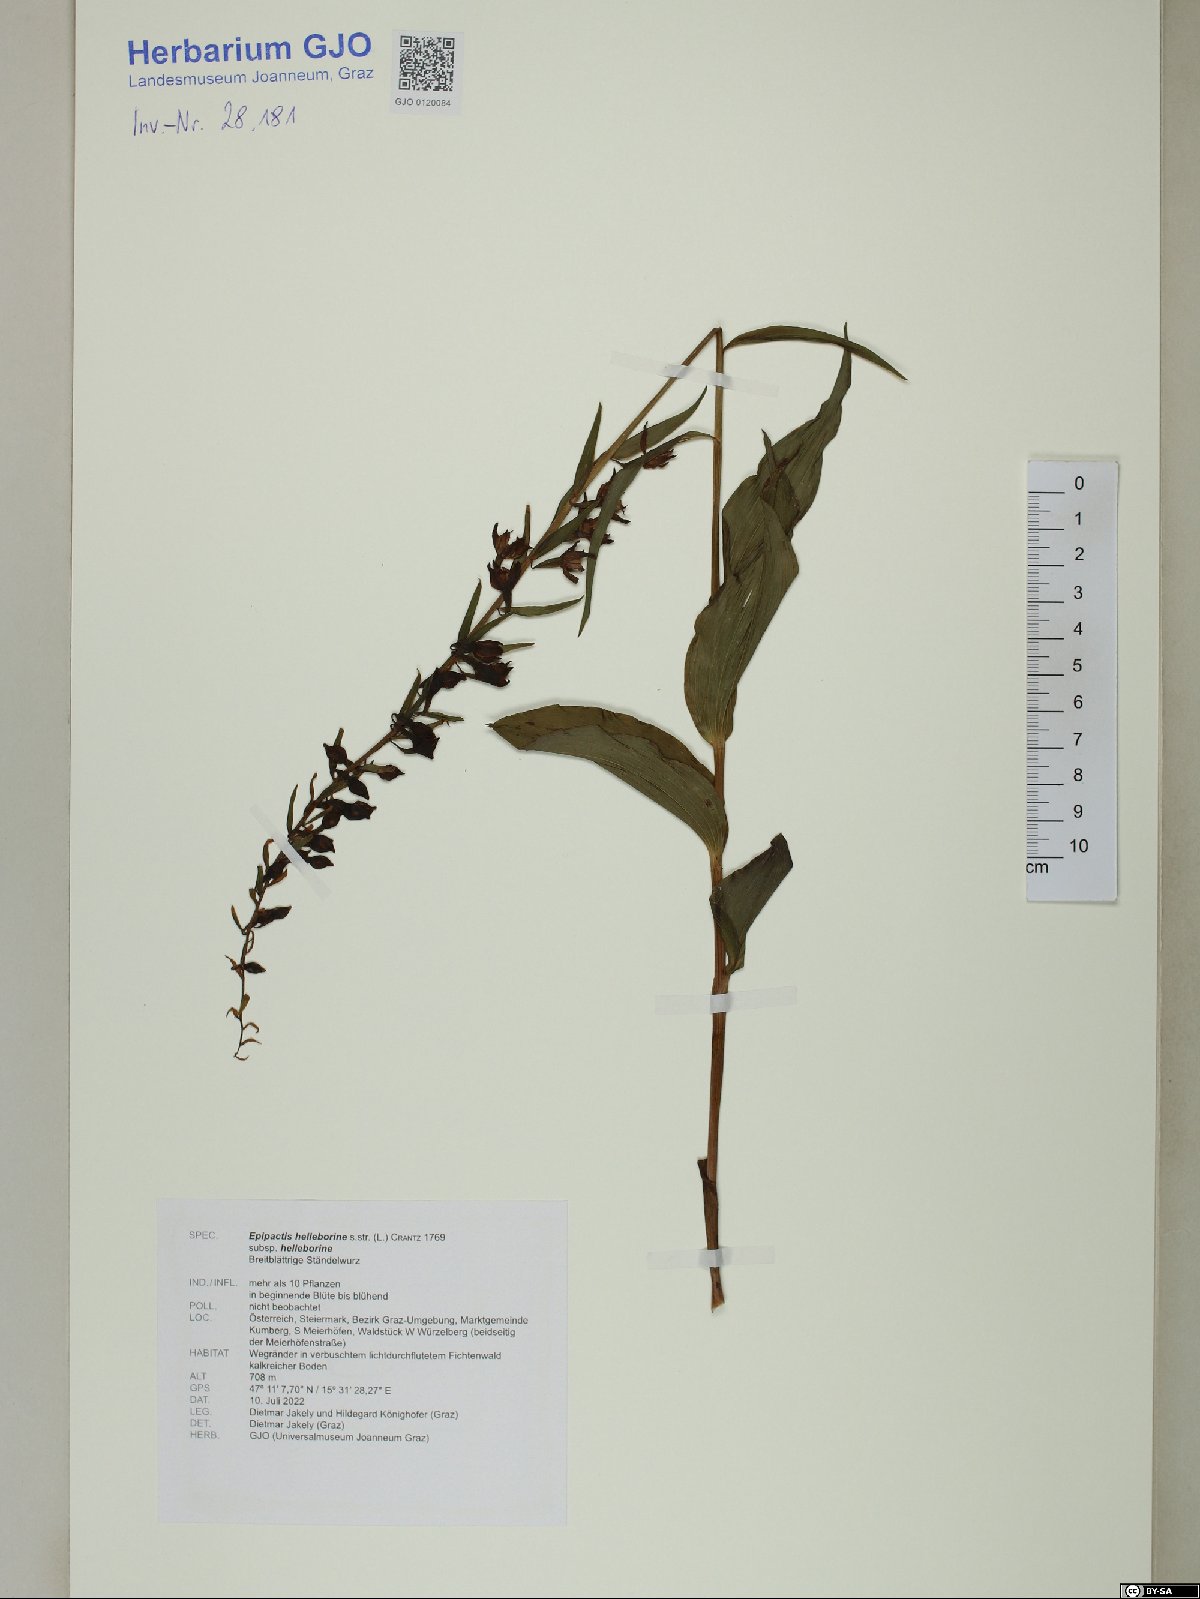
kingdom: Plantae
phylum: Tracheophyta
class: Liliopsida
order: Asparagales
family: Orchidaceae
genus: Epipactis
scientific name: Epipactis helleborine
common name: Broad-leaved helleborine
